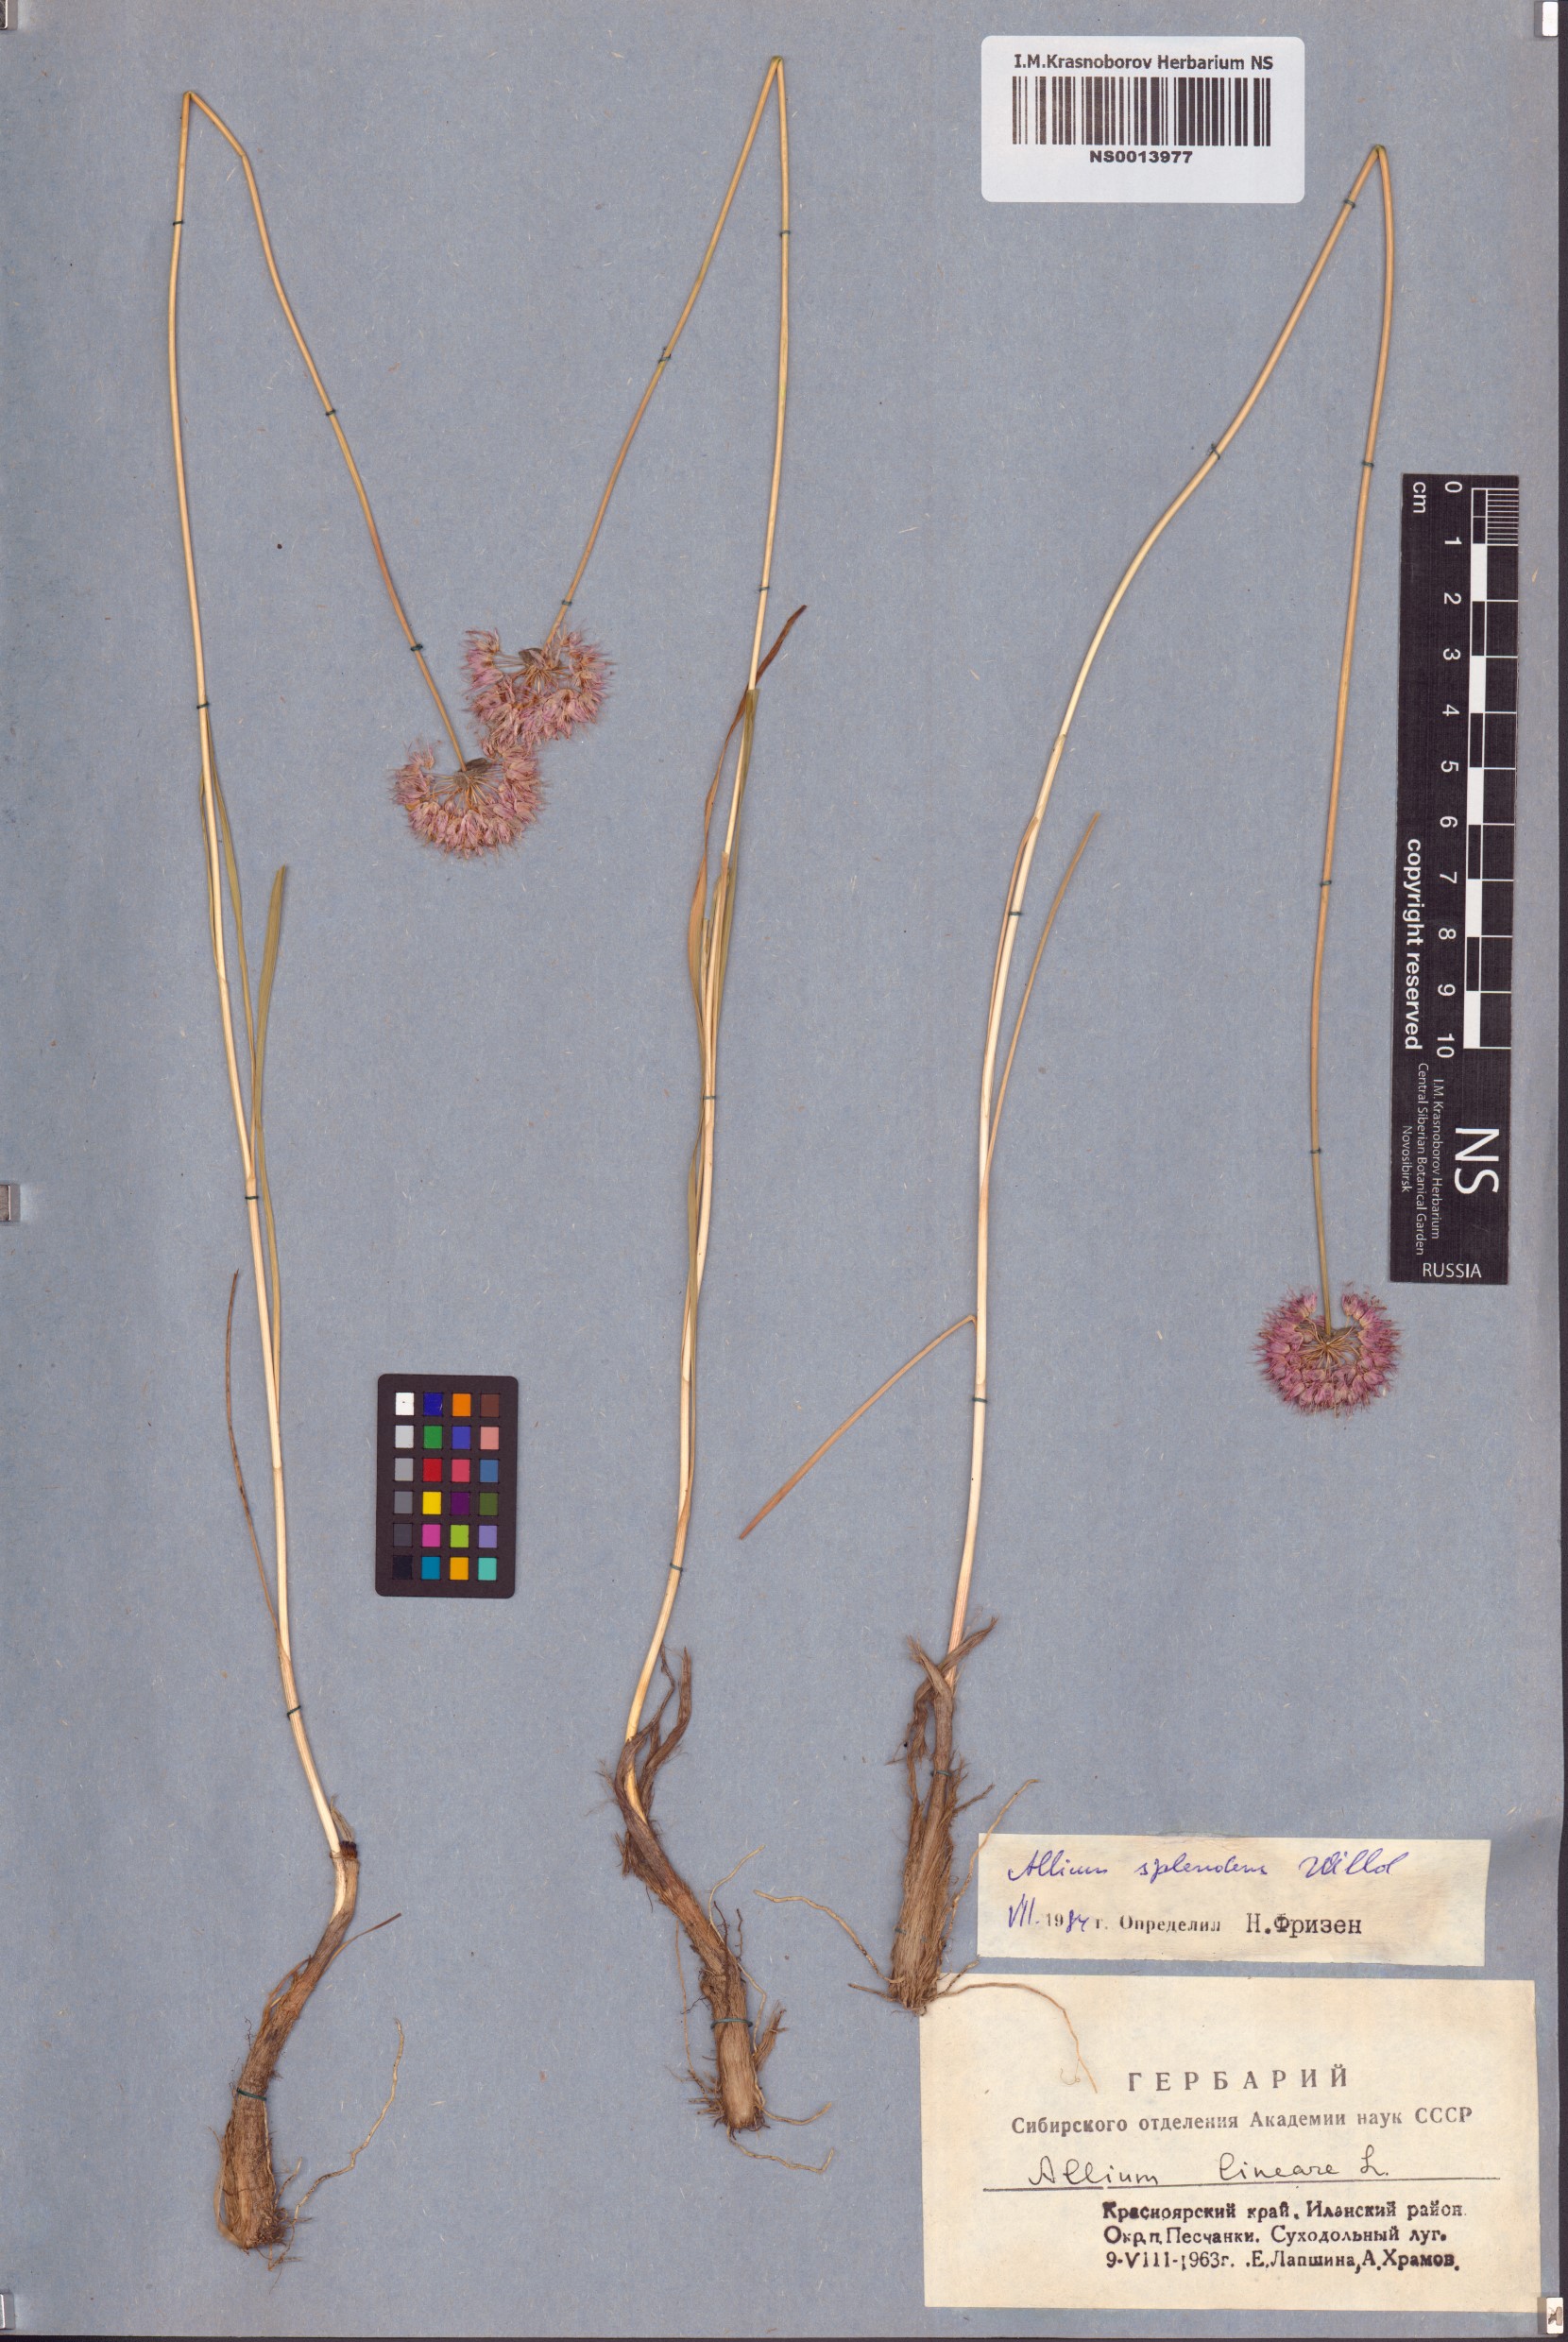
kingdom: Plantae
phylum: Tracheophyta
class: Liliopsida
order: Asparagales
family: Amaryllidaceae
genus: Allium
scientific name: Allium splendens
